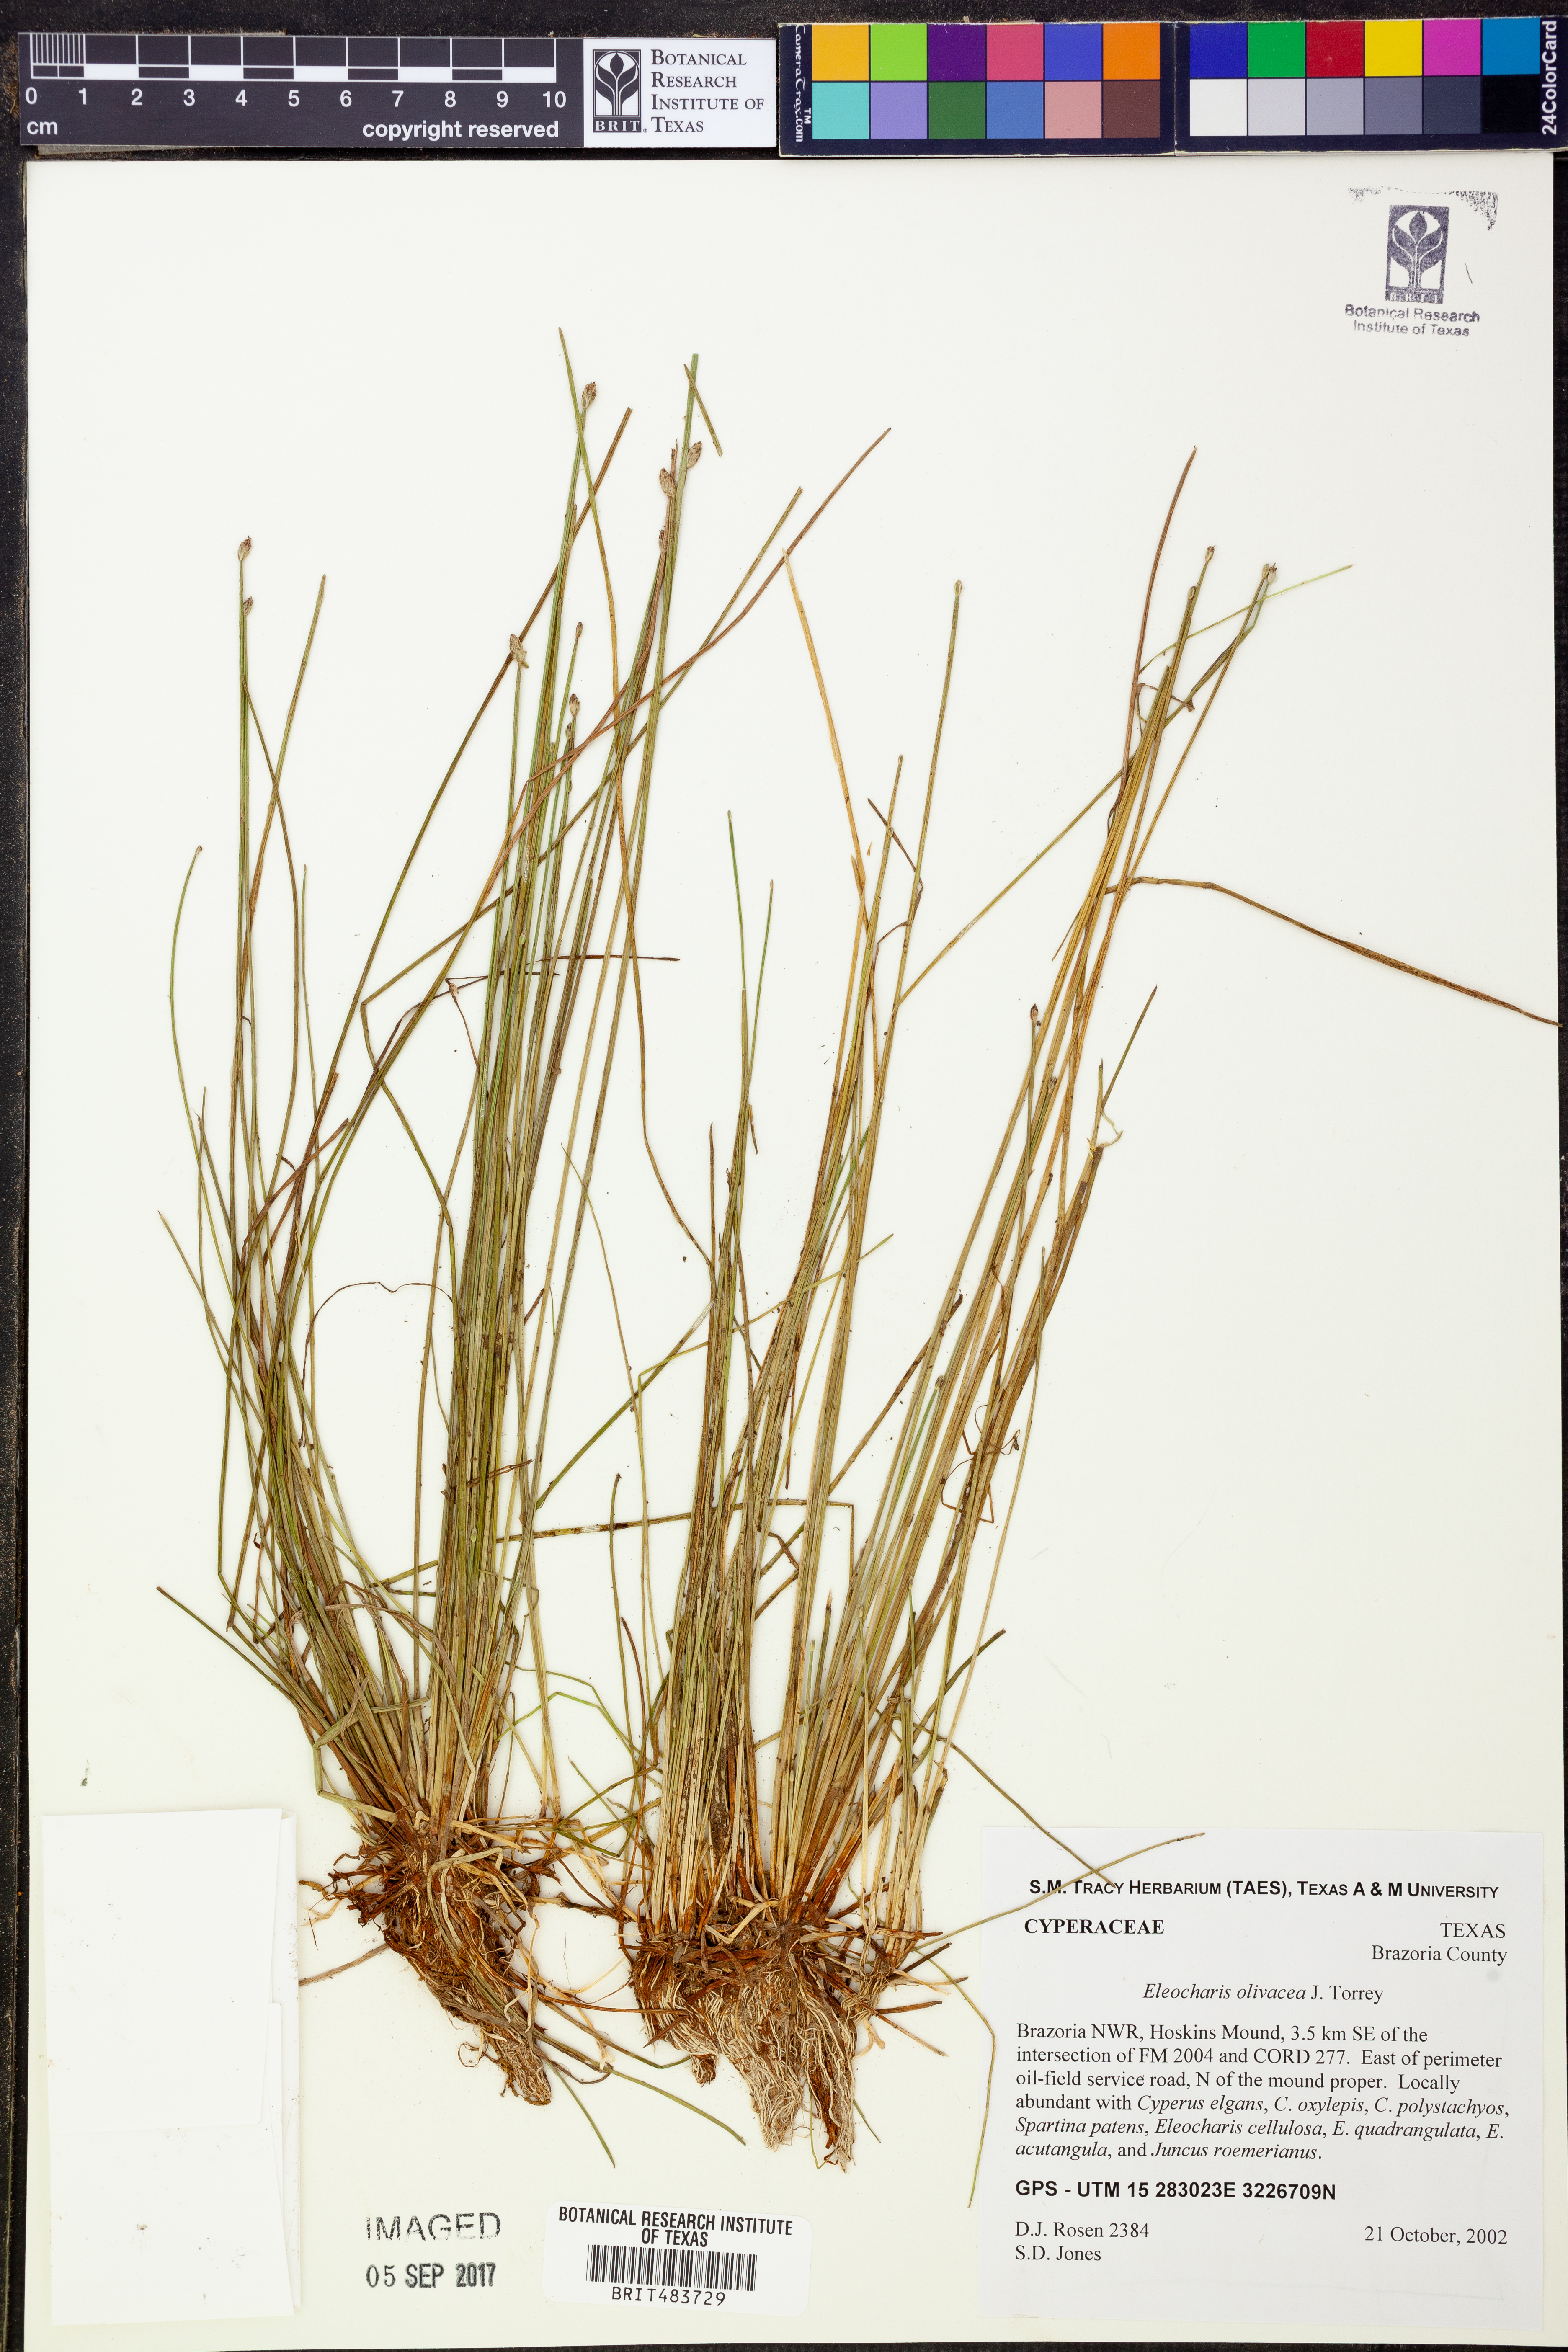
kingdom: Plantae
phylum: Tracheophyta
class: Liliopsida
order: Poales
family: Cyperaceae
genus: Eleocharis
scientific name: Eleocharis flavescens
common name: Yellow spikerush
